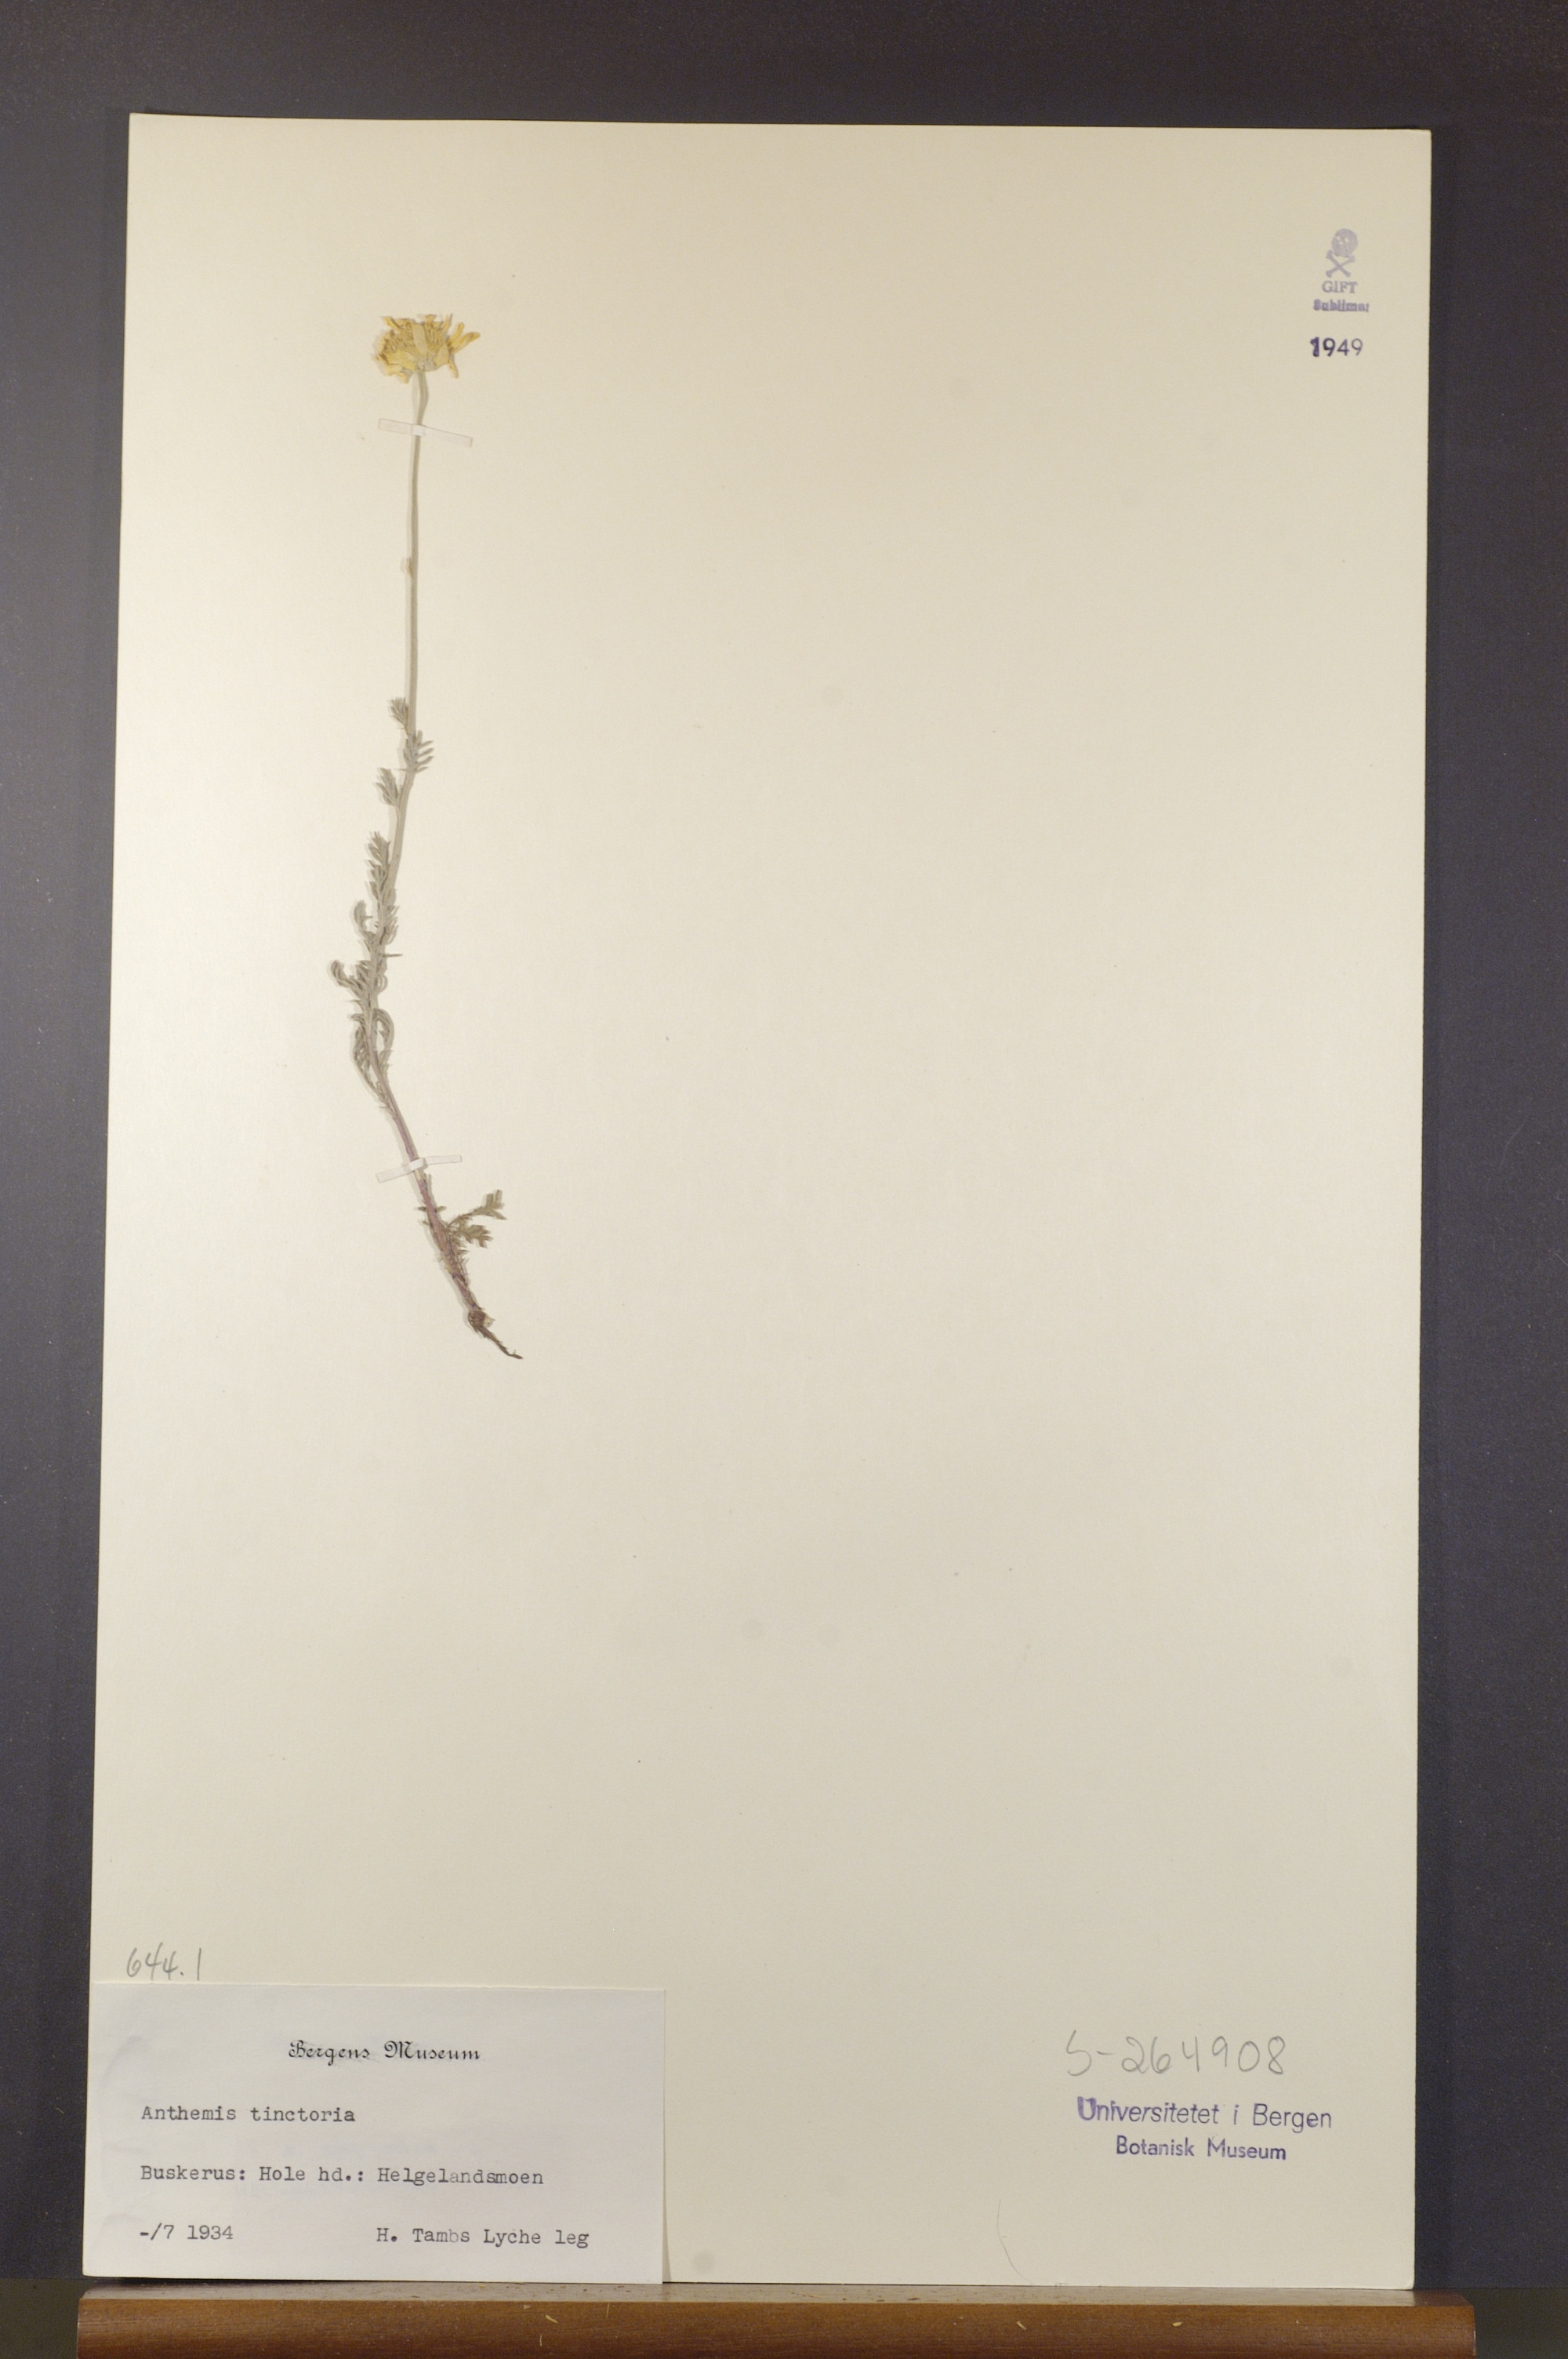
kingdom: Plantae
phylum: Tracheophyta
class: Magnoliopsida
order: Asterales
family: Asteraceae
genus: Cota
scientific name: Cota tinctoria
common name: Golden chamomile
